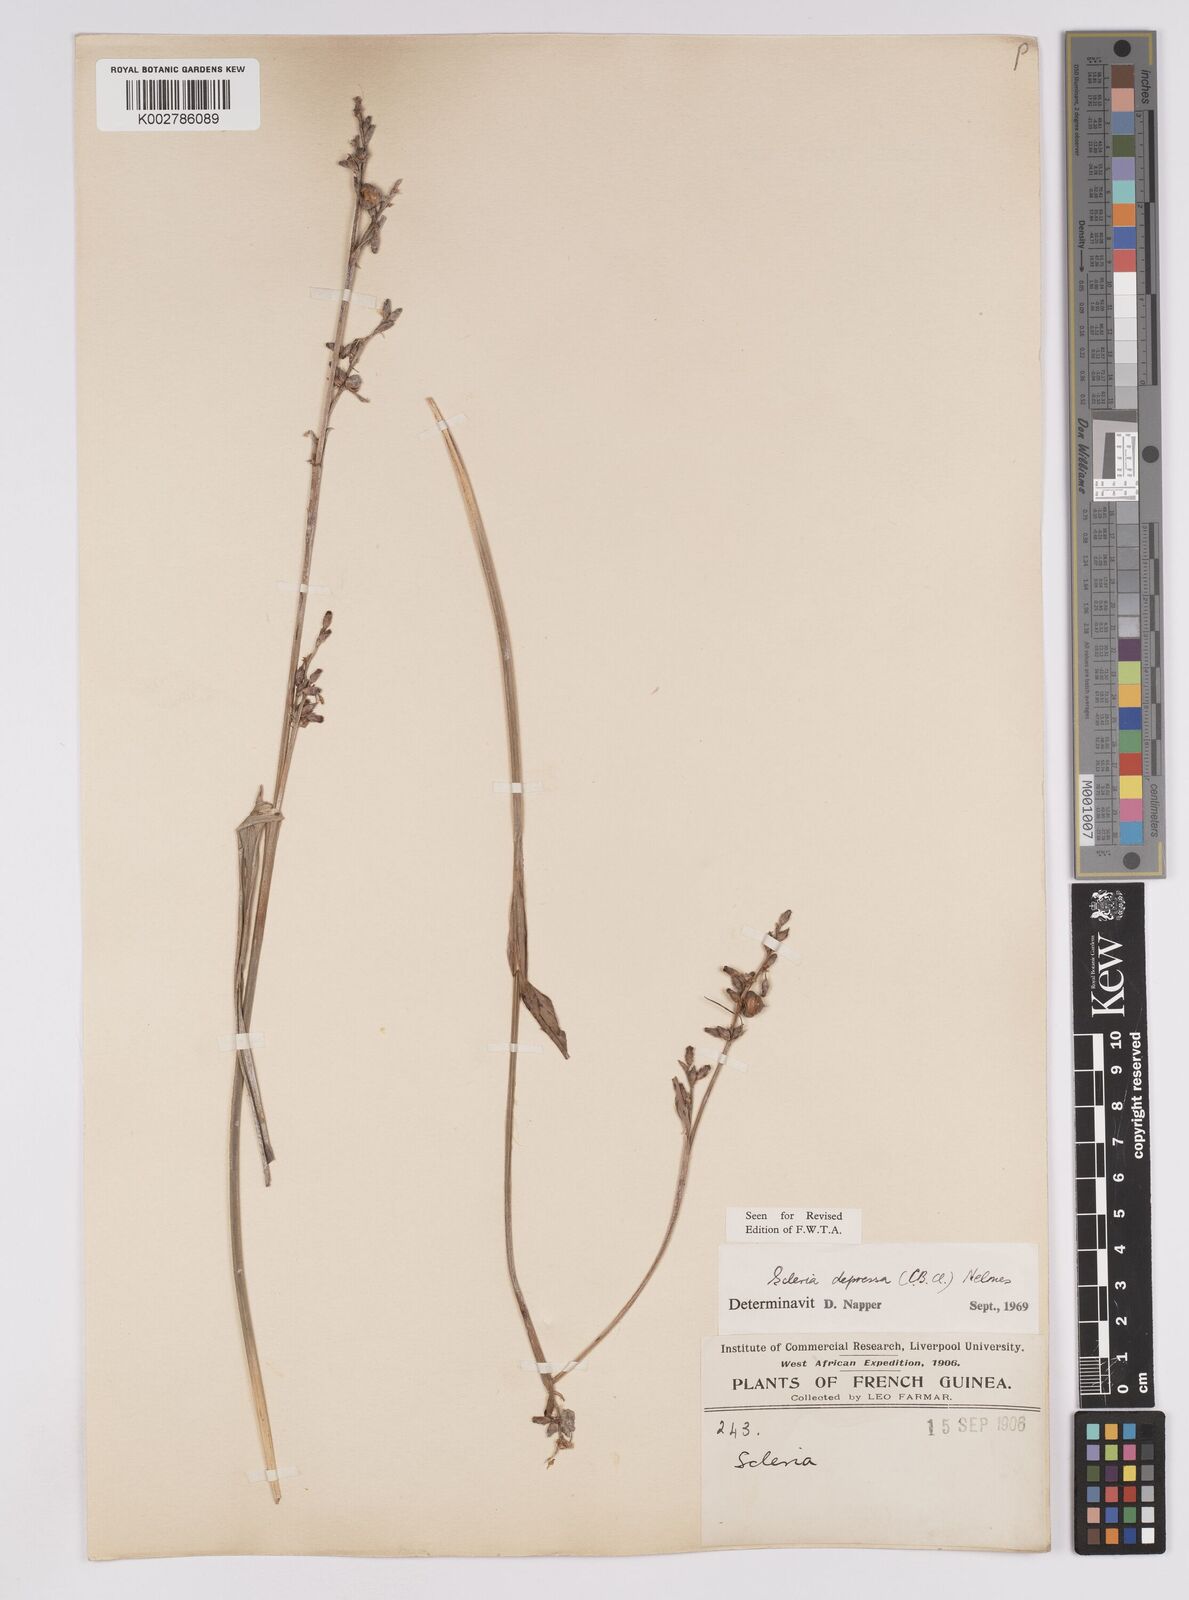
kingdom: Plantae
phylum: Tracheophyta
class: Liliopsida
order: Poales
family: Cyperaceae
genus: Scleria
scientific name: Scleria depressa
